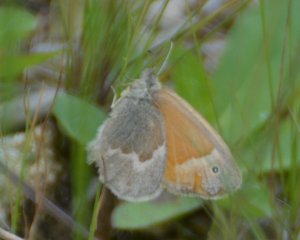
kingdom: Animalia
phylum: Arthropoda
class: Insecta
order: Lepidoptera
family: Nymphalidae
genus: Coenonympha
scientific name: Coenonympha tullia
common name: Large Heath
